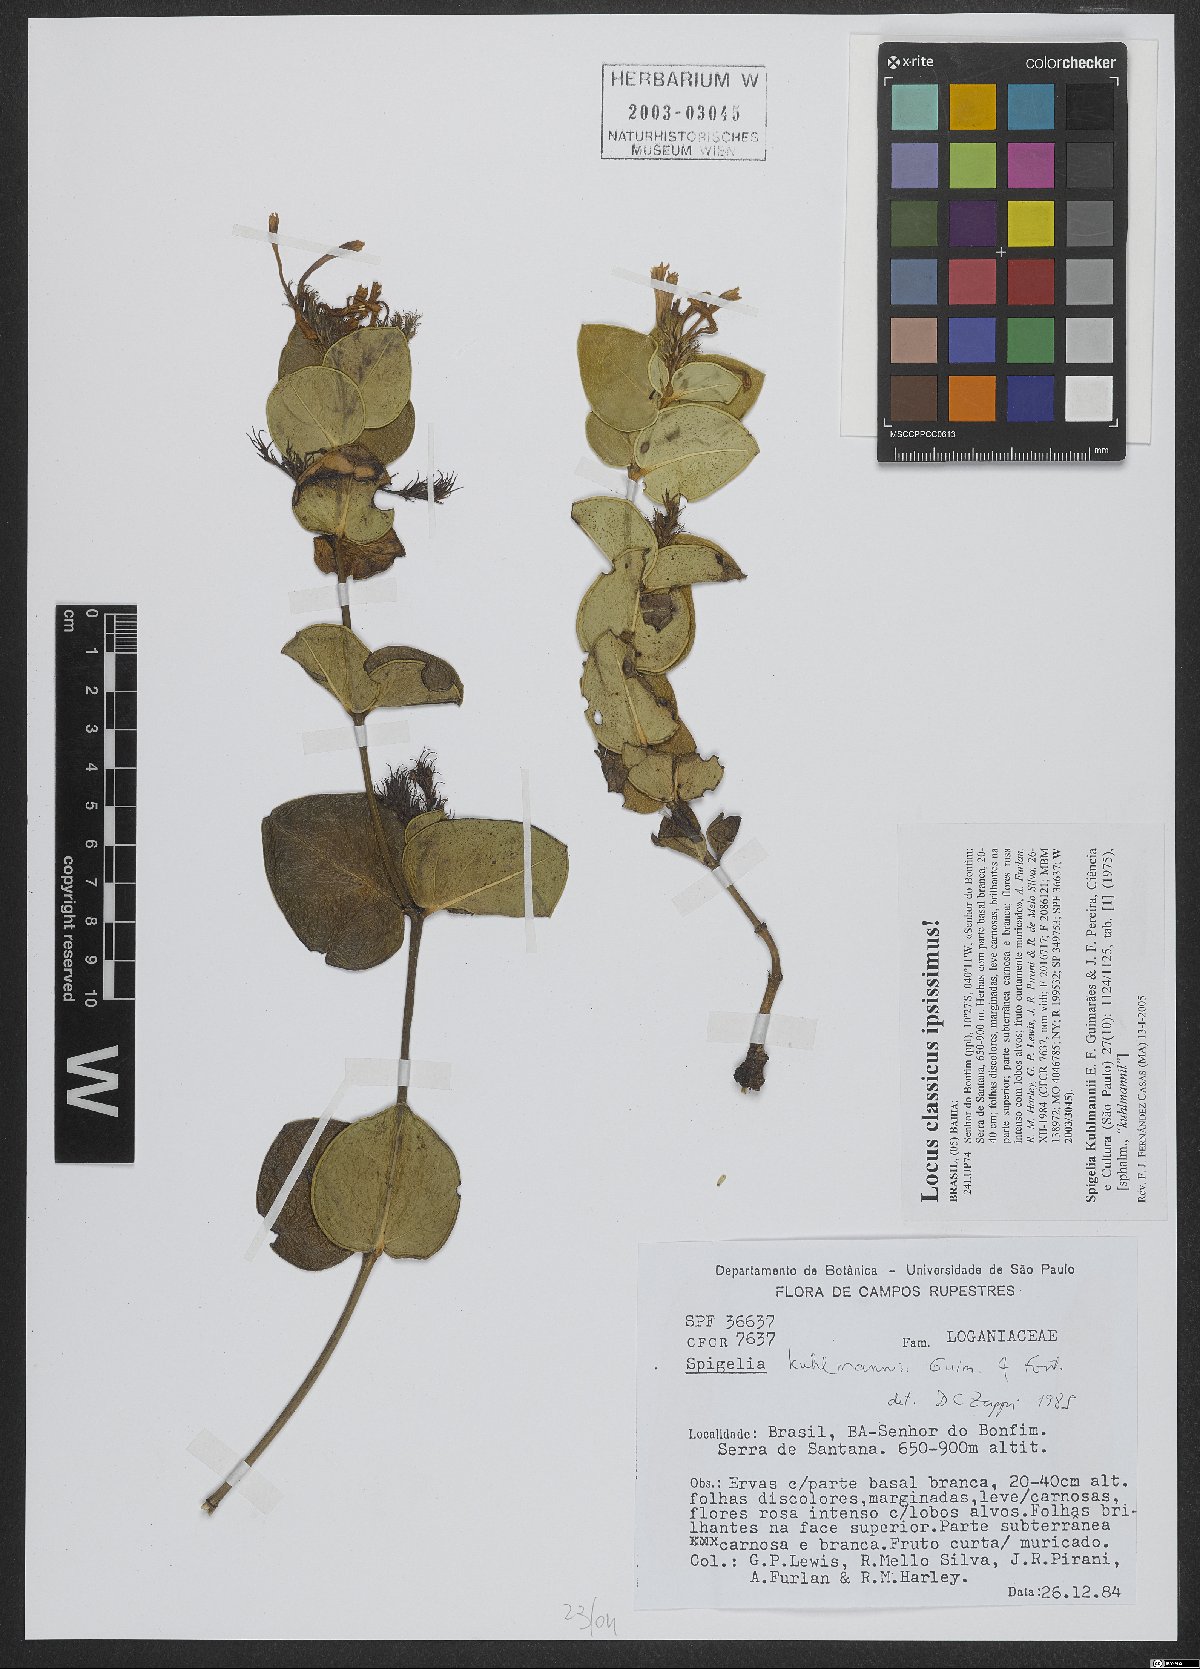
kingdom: Plantae
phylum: Tracheophyta
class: Magnoliopsida
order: Gentianales
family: Loganiaceae
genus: Spigelia
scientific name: Spigelia kuhlmannii
